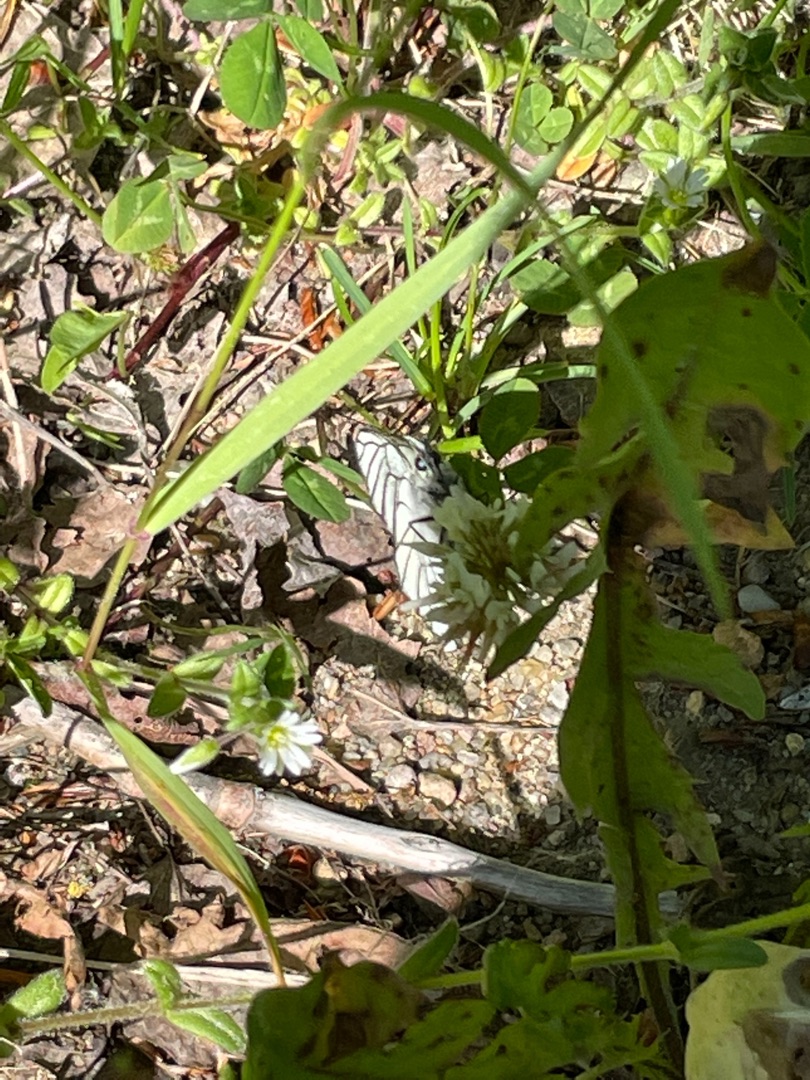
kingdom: Animalia
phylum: Arthropoda
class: Insecta
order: Lepidoptera
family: Pieridae
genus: Aporia
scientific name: Aporia crataegi
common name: Sortåret hvidvinge
